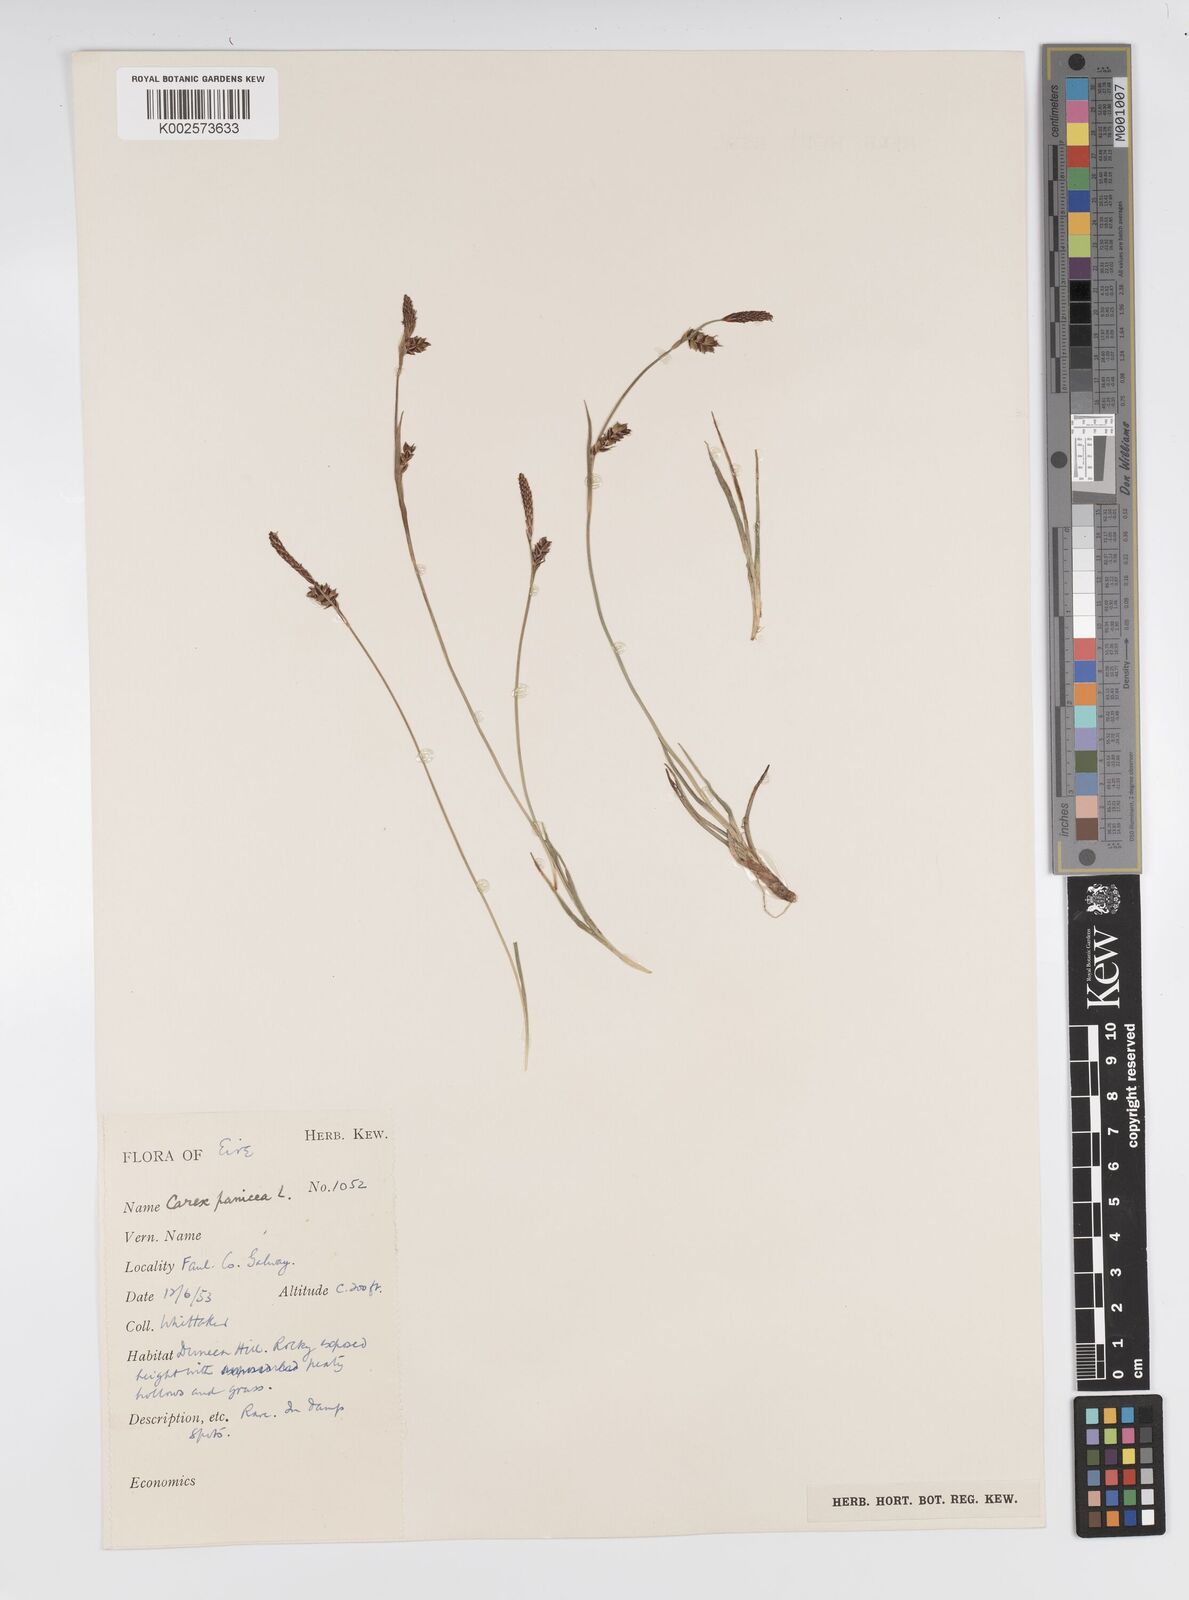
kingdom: Plantae
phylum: Tracheophyta
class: Liliopsida
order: Poales
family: Cyperaceae
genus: Carex
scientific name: Carex panicea
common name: Carnation sedge
